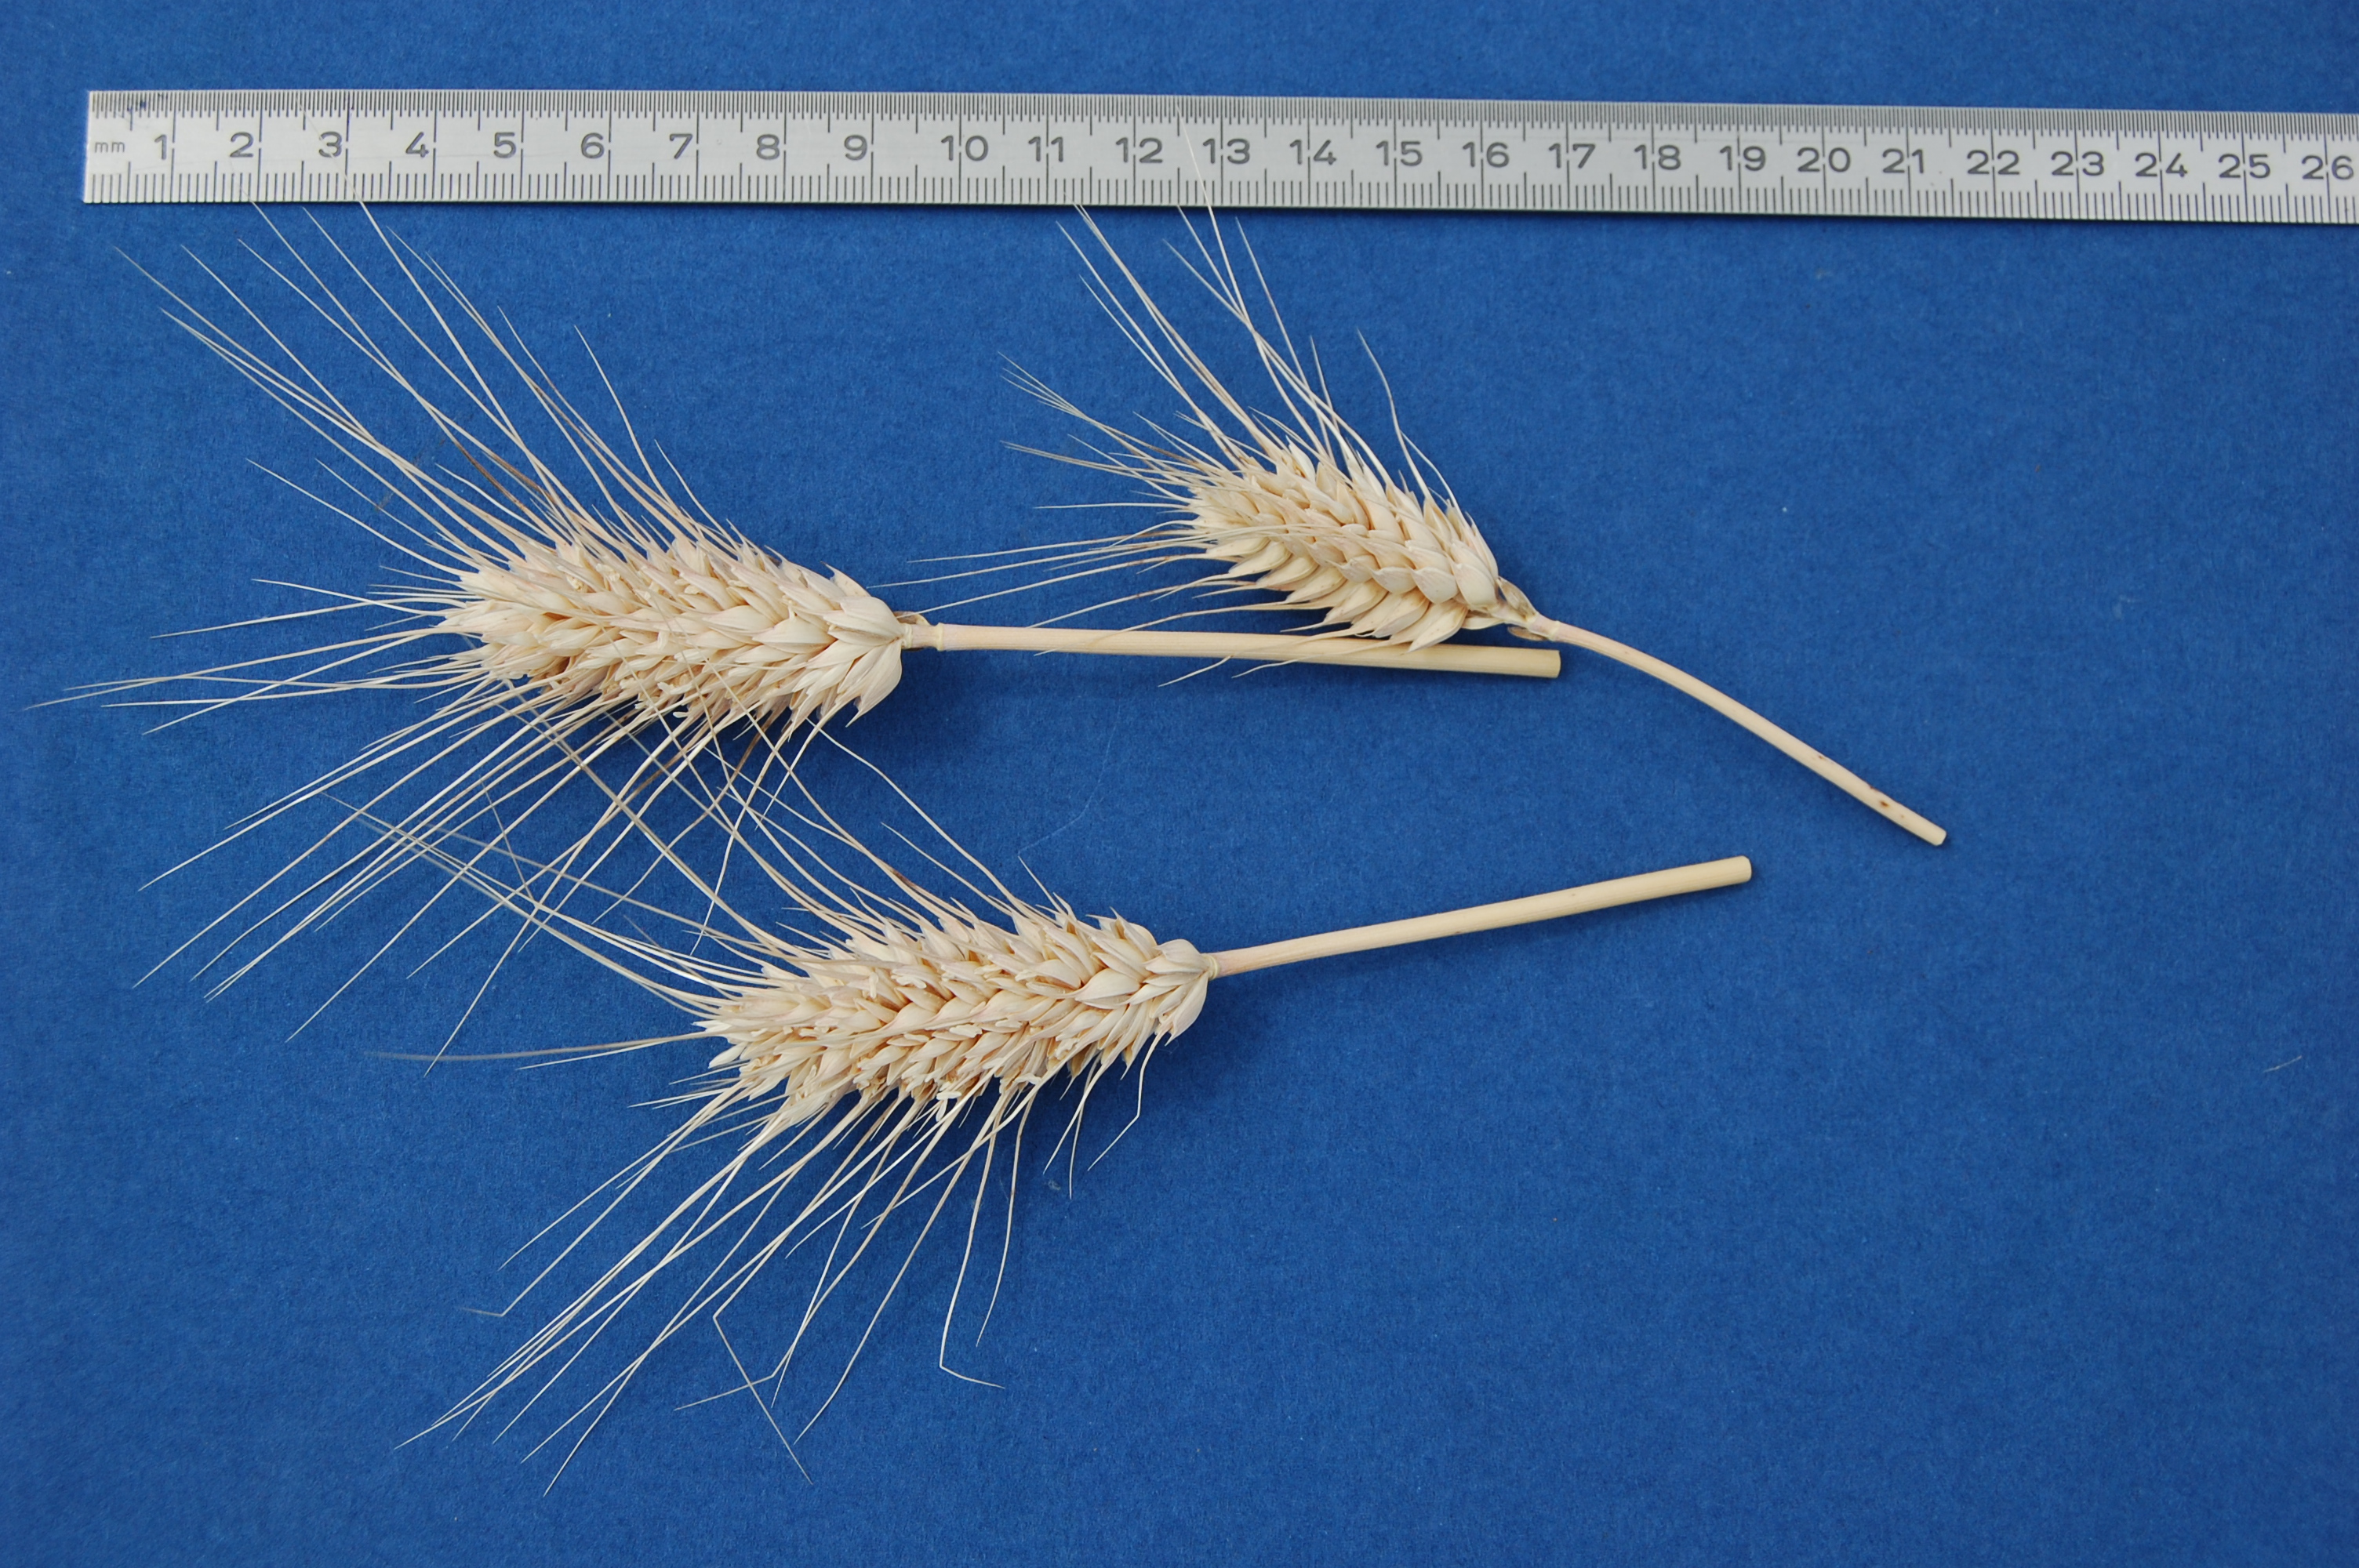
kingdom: Plantae
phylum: Tracheophyta
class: Liliopsida
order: Poales
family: Poaceae
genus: Triticum
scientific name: Triticum aestivum
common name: Common wheat
